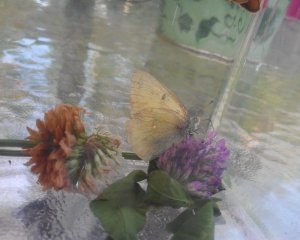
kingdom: Animalia
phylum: Arthropoda
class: Insecta
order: Lepidoptera
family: Pieridae
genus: Colias
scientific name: Colias philodice
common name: Clouded Sulphur
